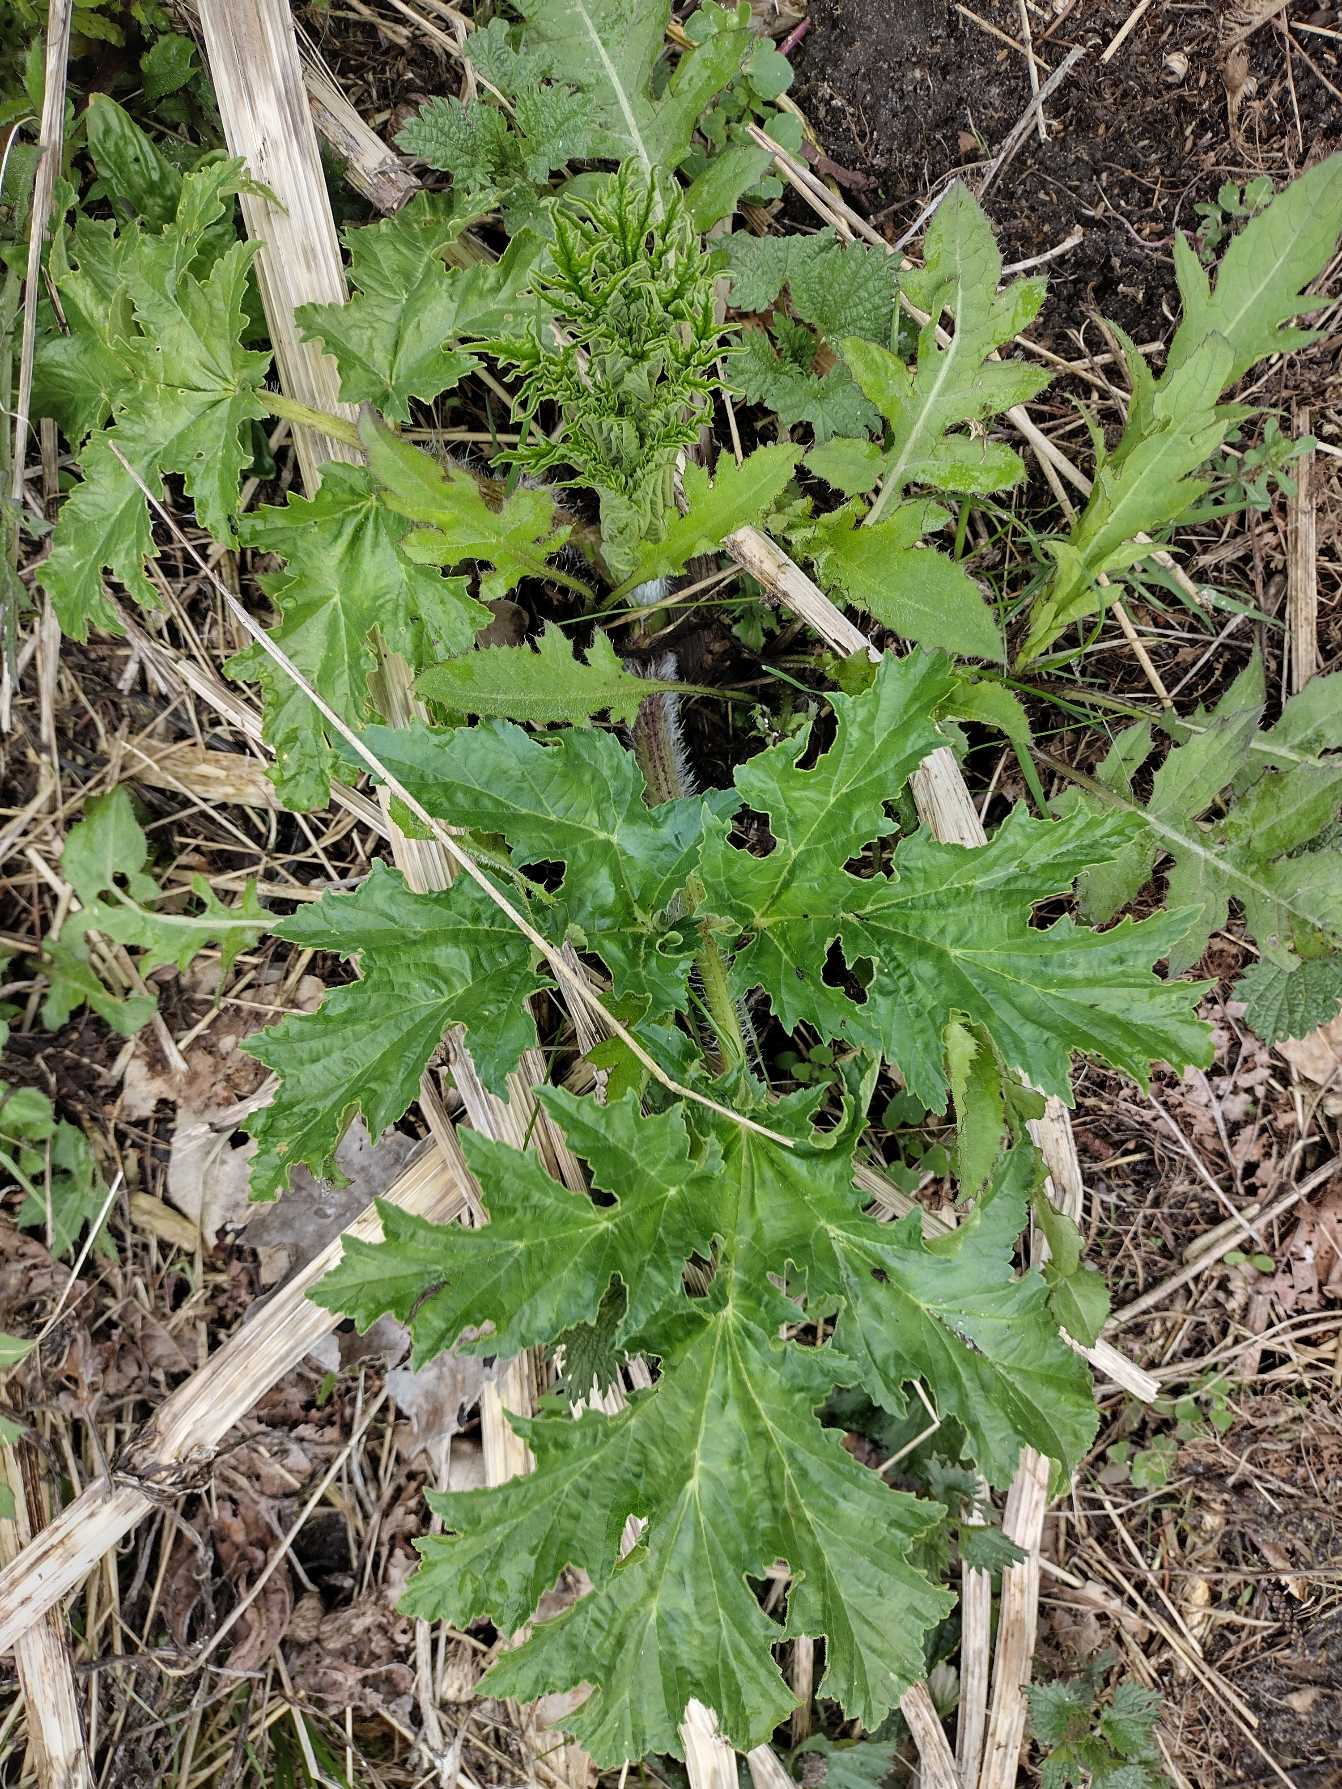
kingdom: Plantae
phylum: Tracheophyta
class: Magnoliopsida
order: Apiales
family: Apiaceae
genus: Heracleum
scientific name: Heracleum mantegazzianum
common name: Kæmpe-bjørneklo
